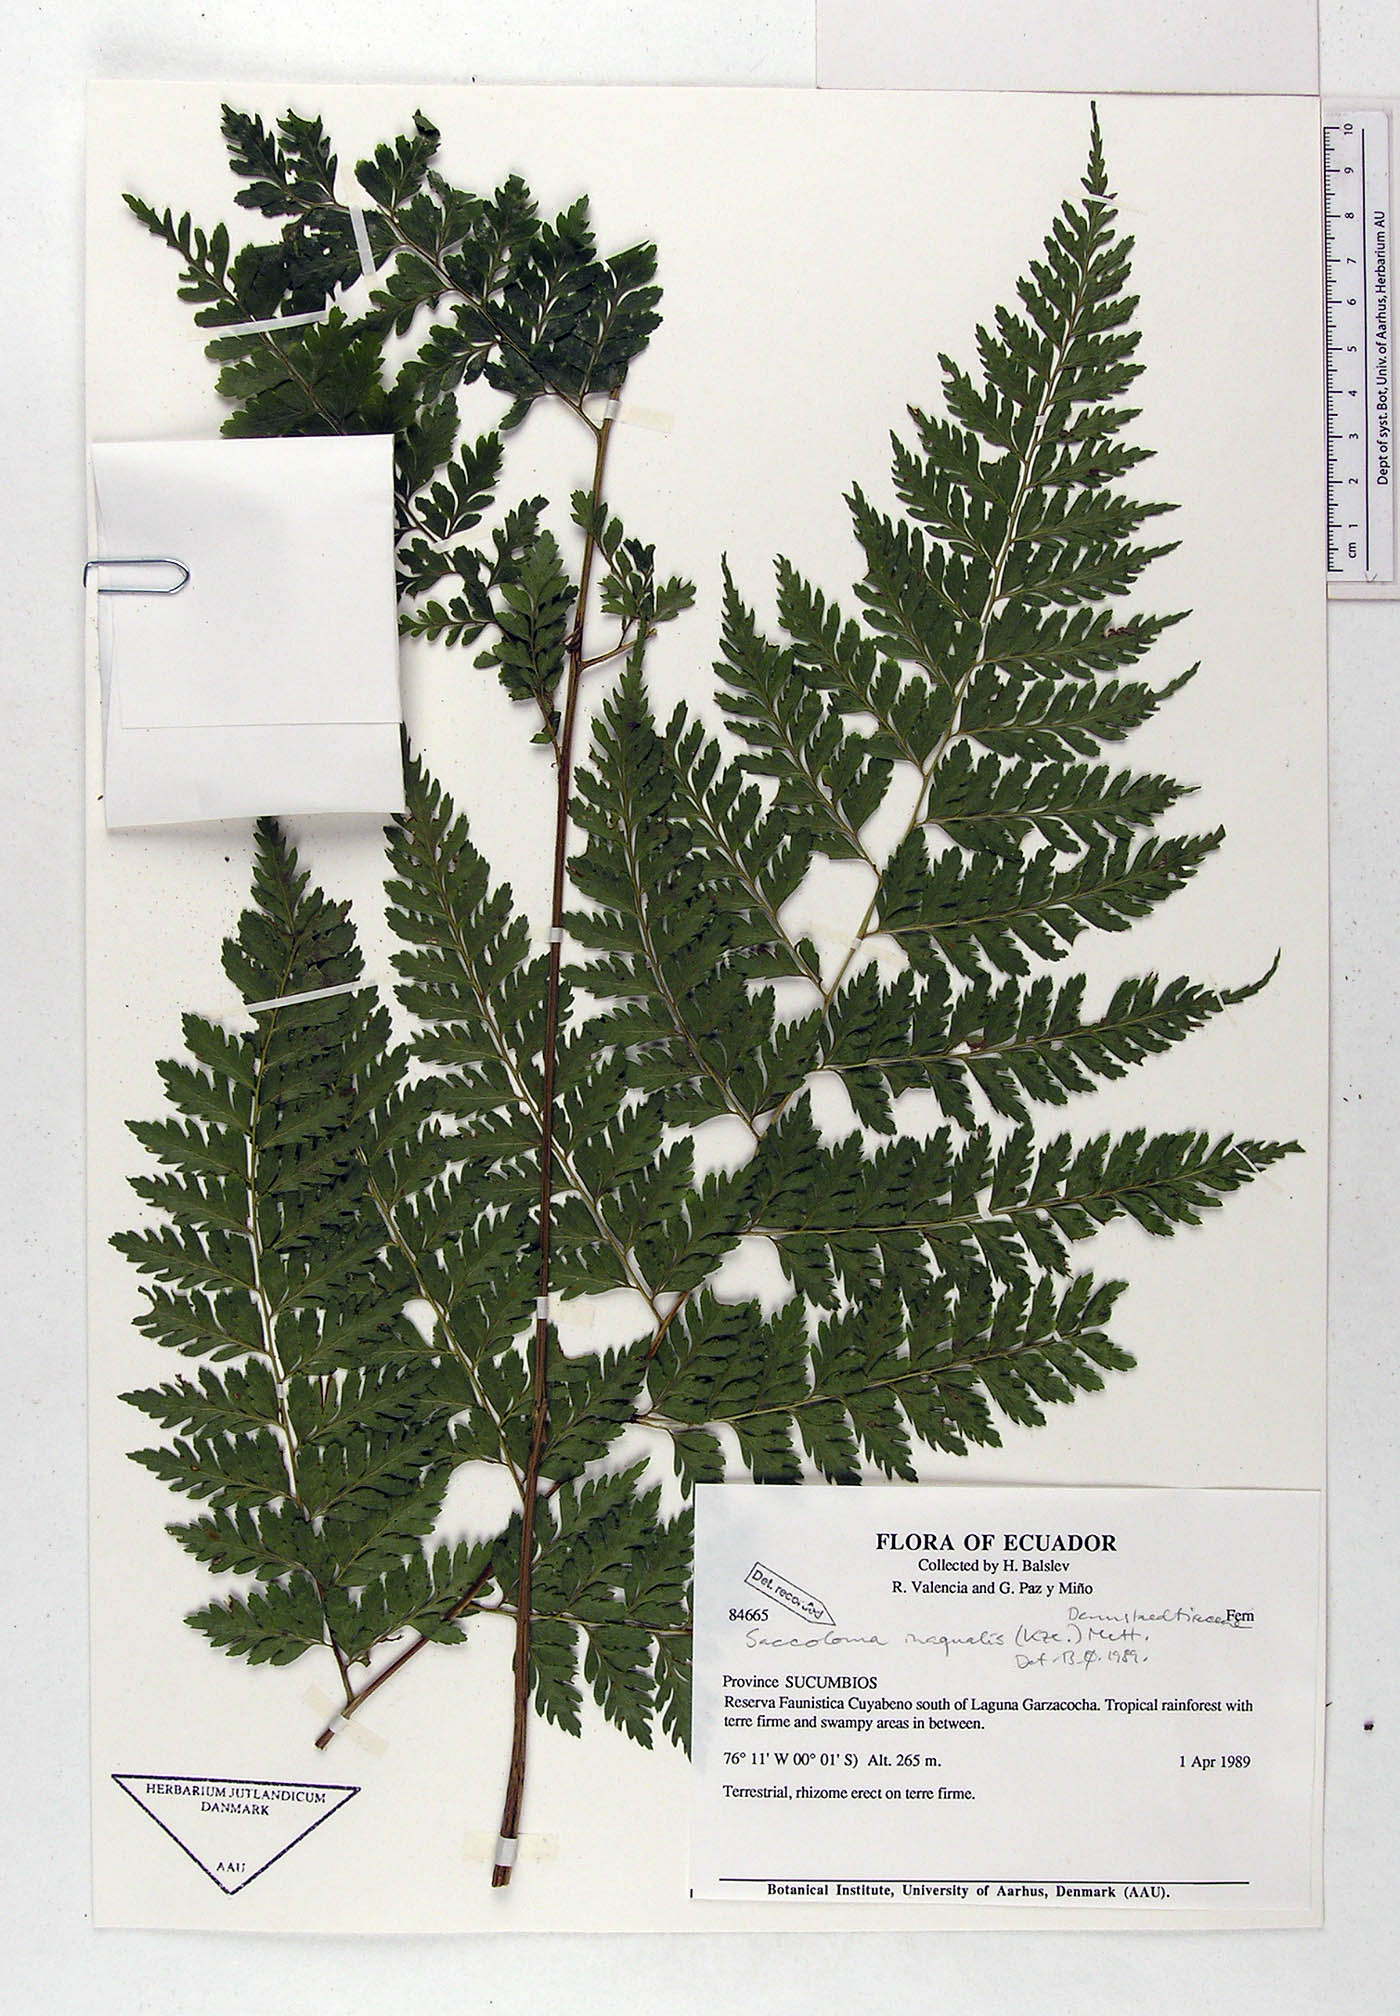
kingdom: Plantae
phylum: Tracheophyta
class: Polypodiopsida
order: Polypodiales
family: Saccolomataceae
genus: Saccoloma
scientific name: Saccoloma inaequale
